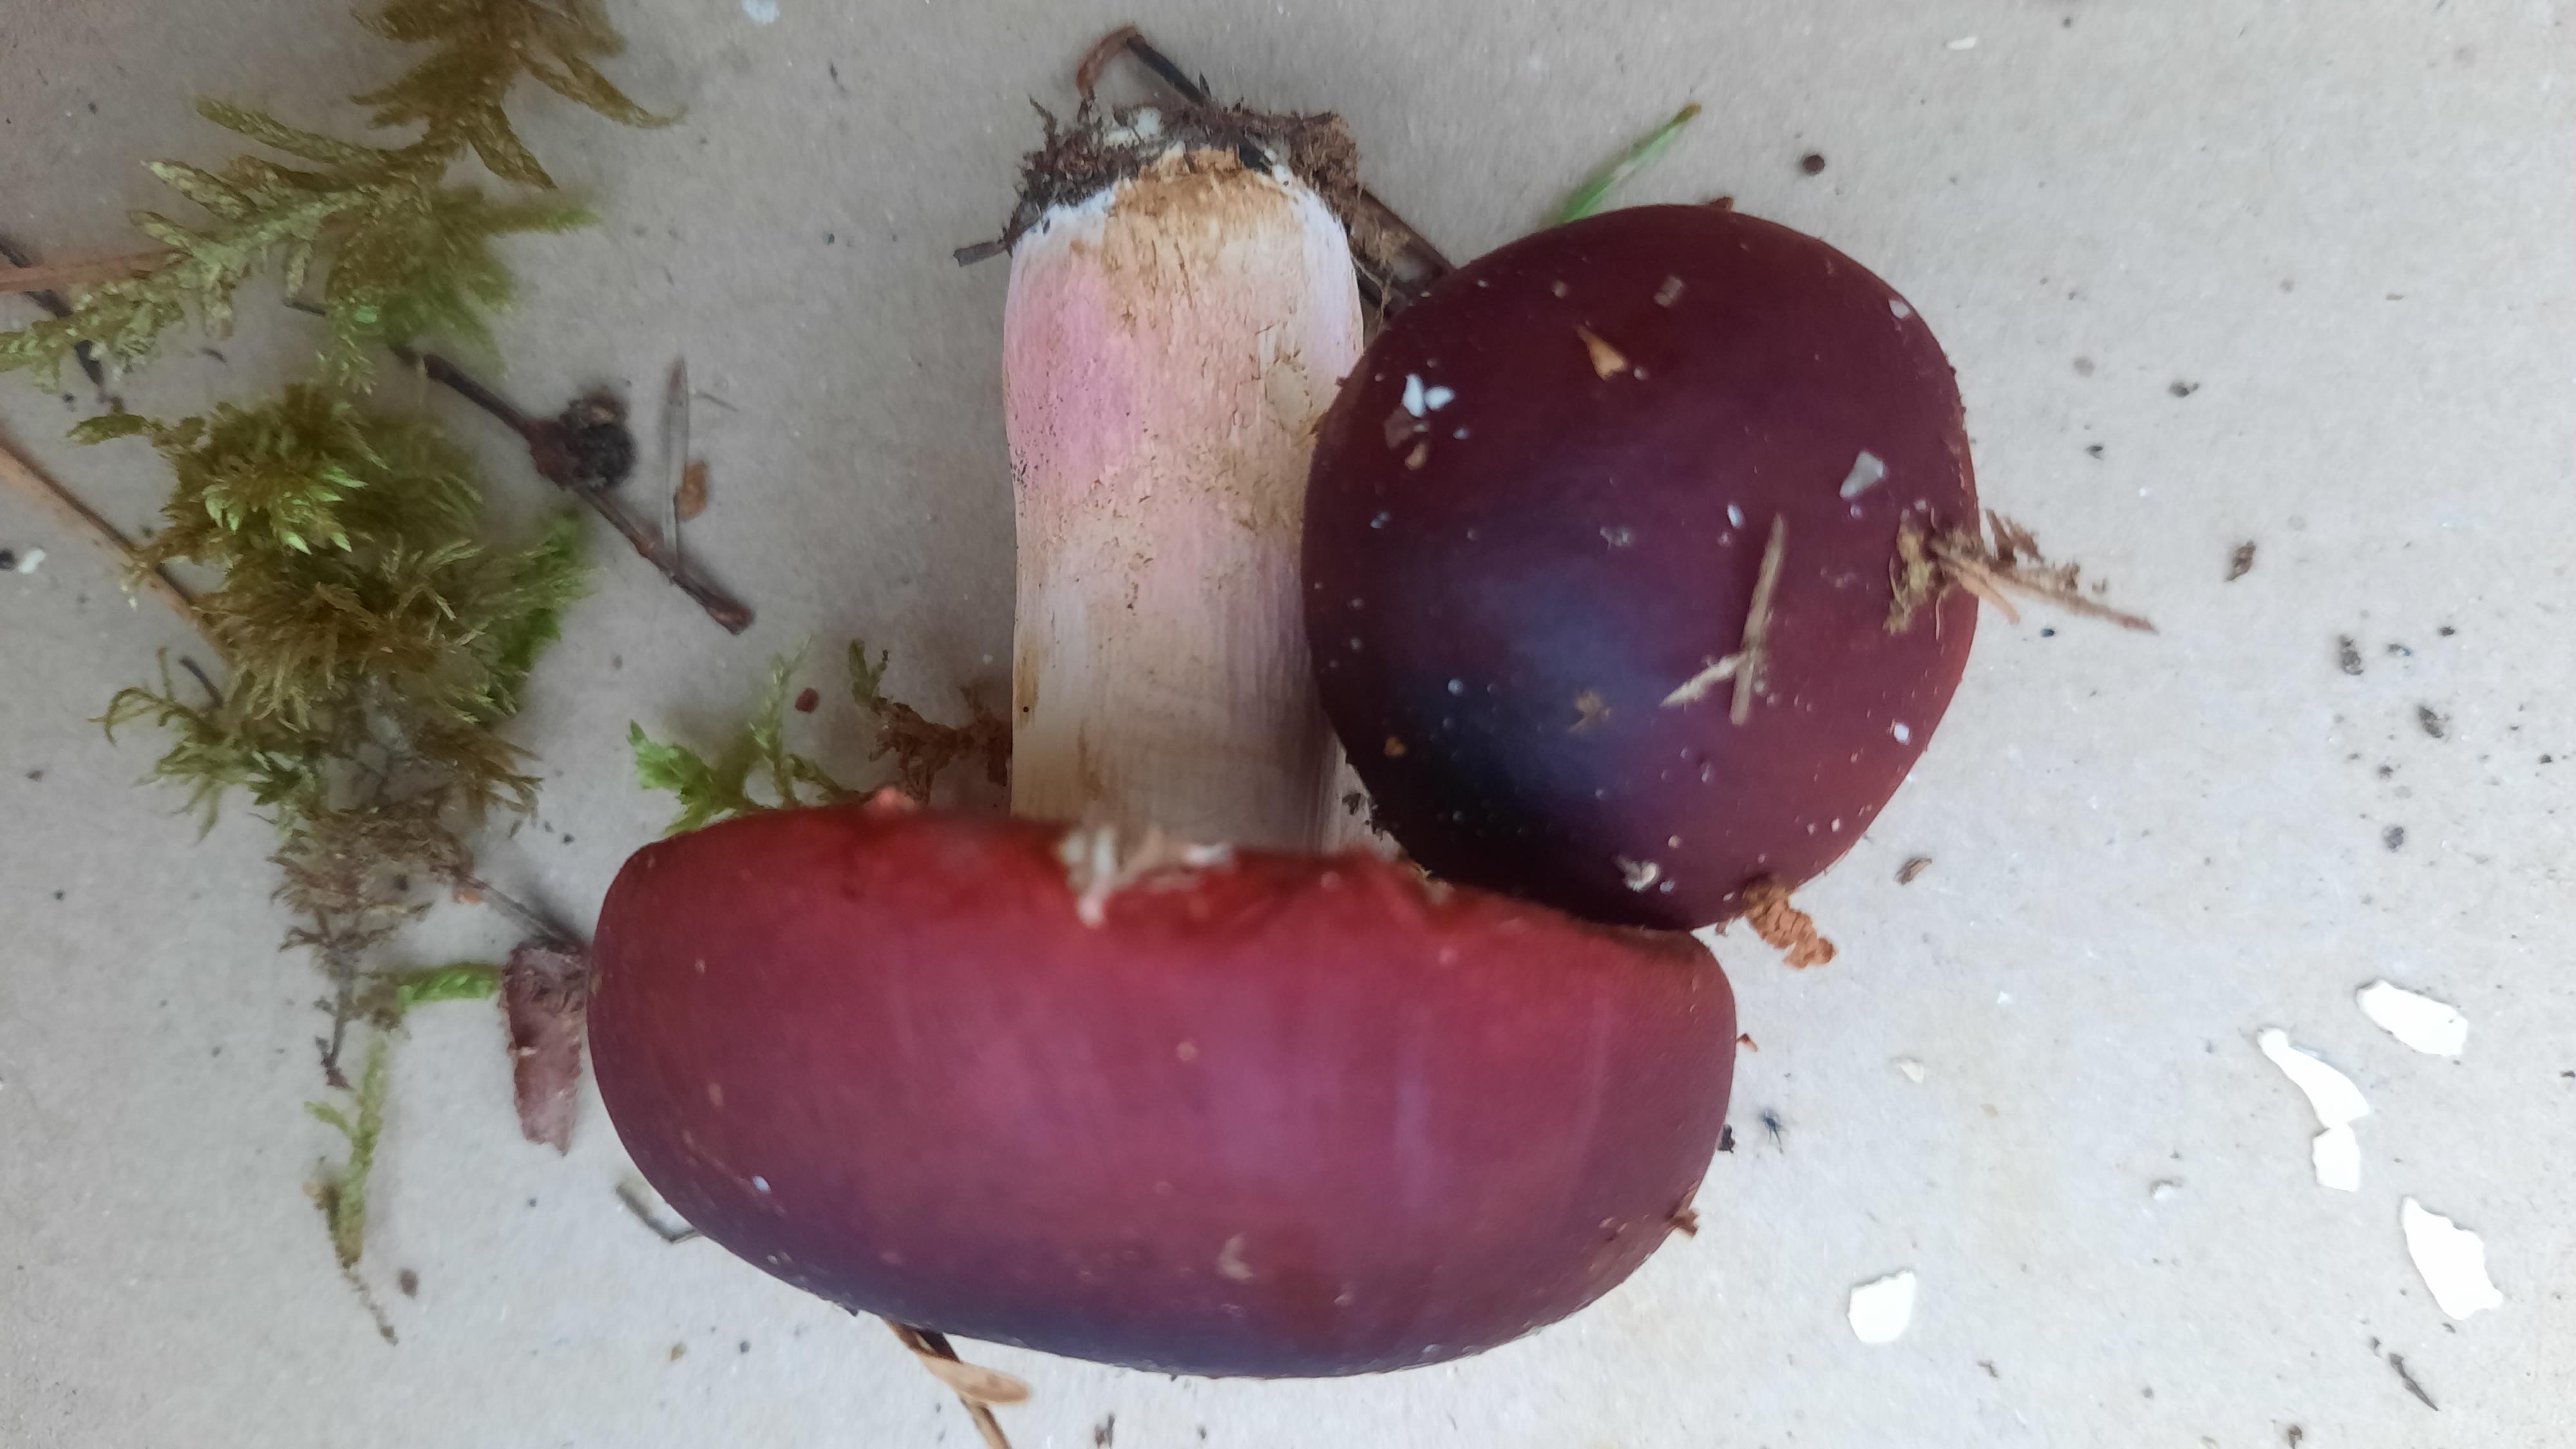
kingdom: Fungi
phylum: Basidiomycota
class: Agaricomycetes
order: Russulales
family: Russulaceae
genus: Russula
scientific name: Russula xerampelina
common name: hummer-skørhat
